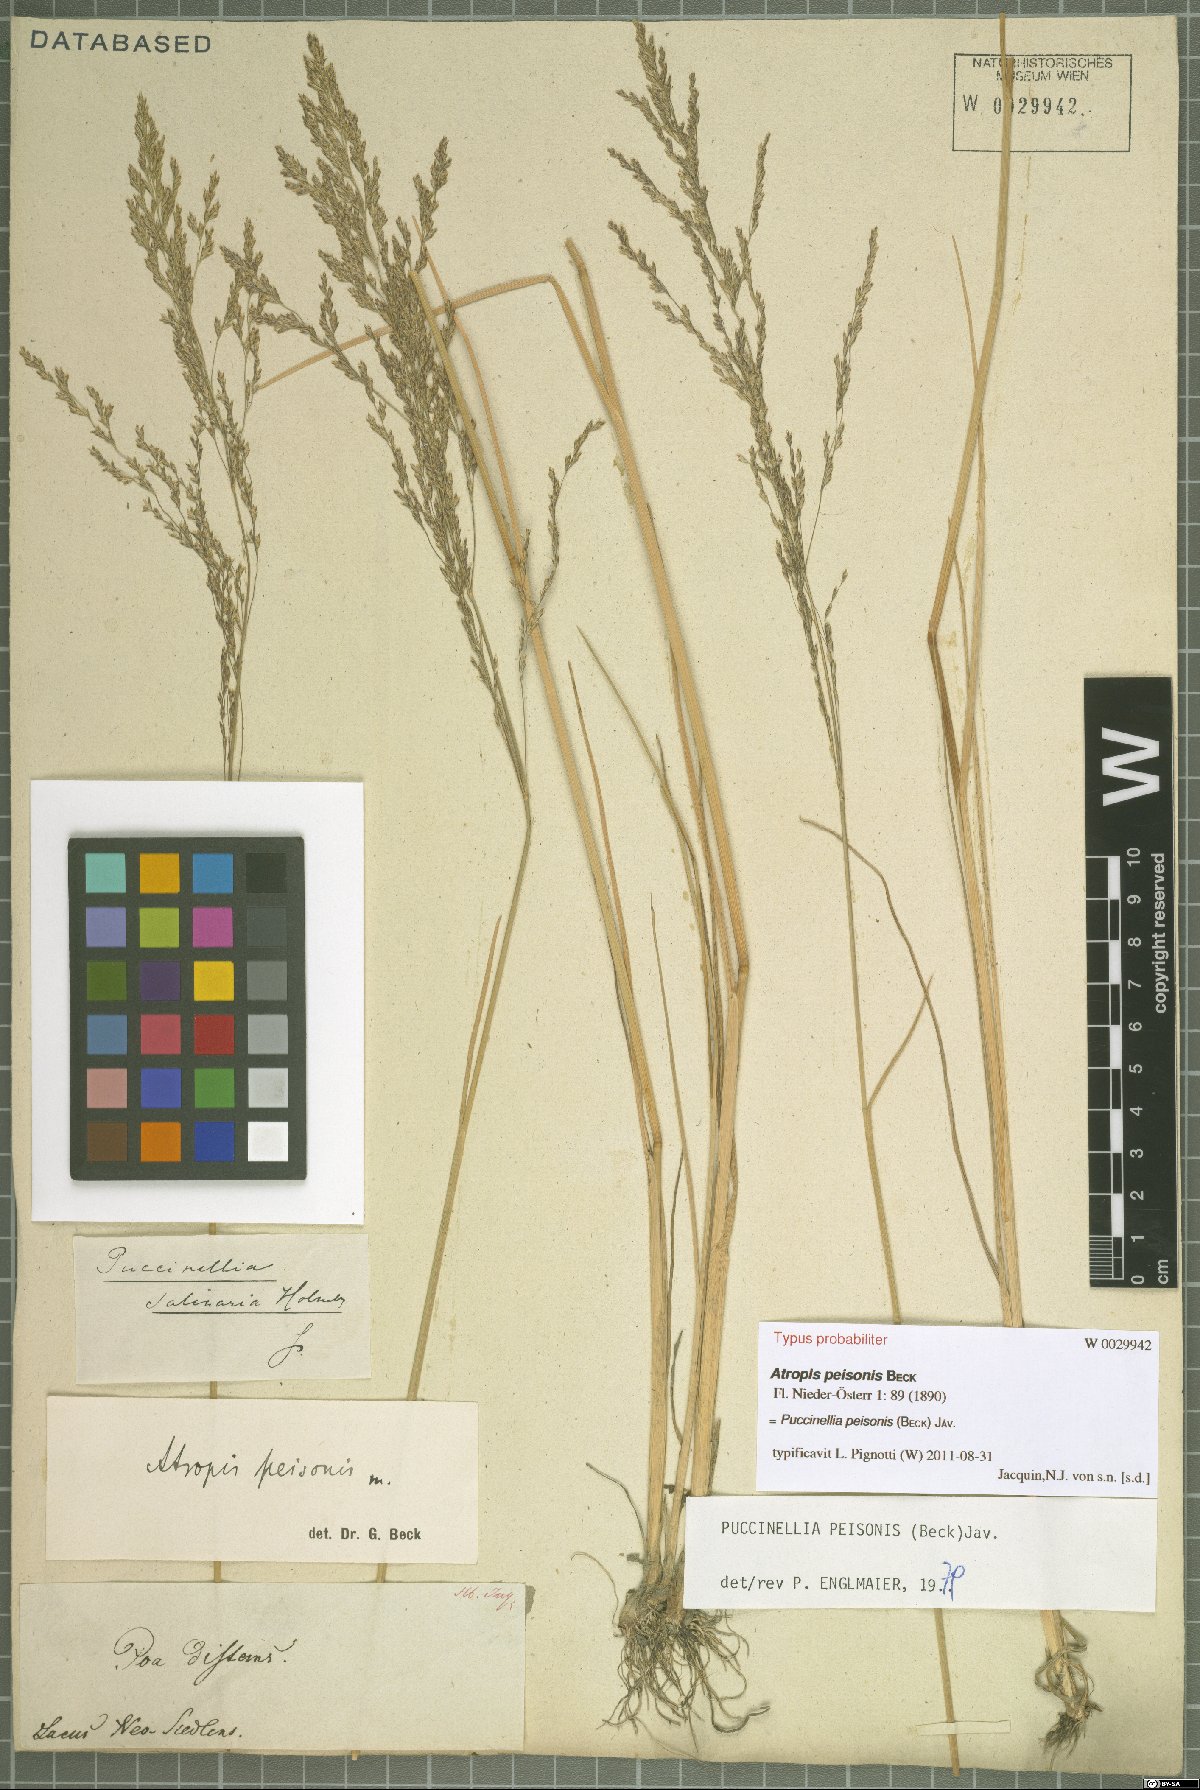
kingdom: Plantae
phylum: Tracheophyta
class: Liliopsida
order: Poales
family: Poaceae
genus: Puccinellia
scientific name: Puccinellia intermedia
